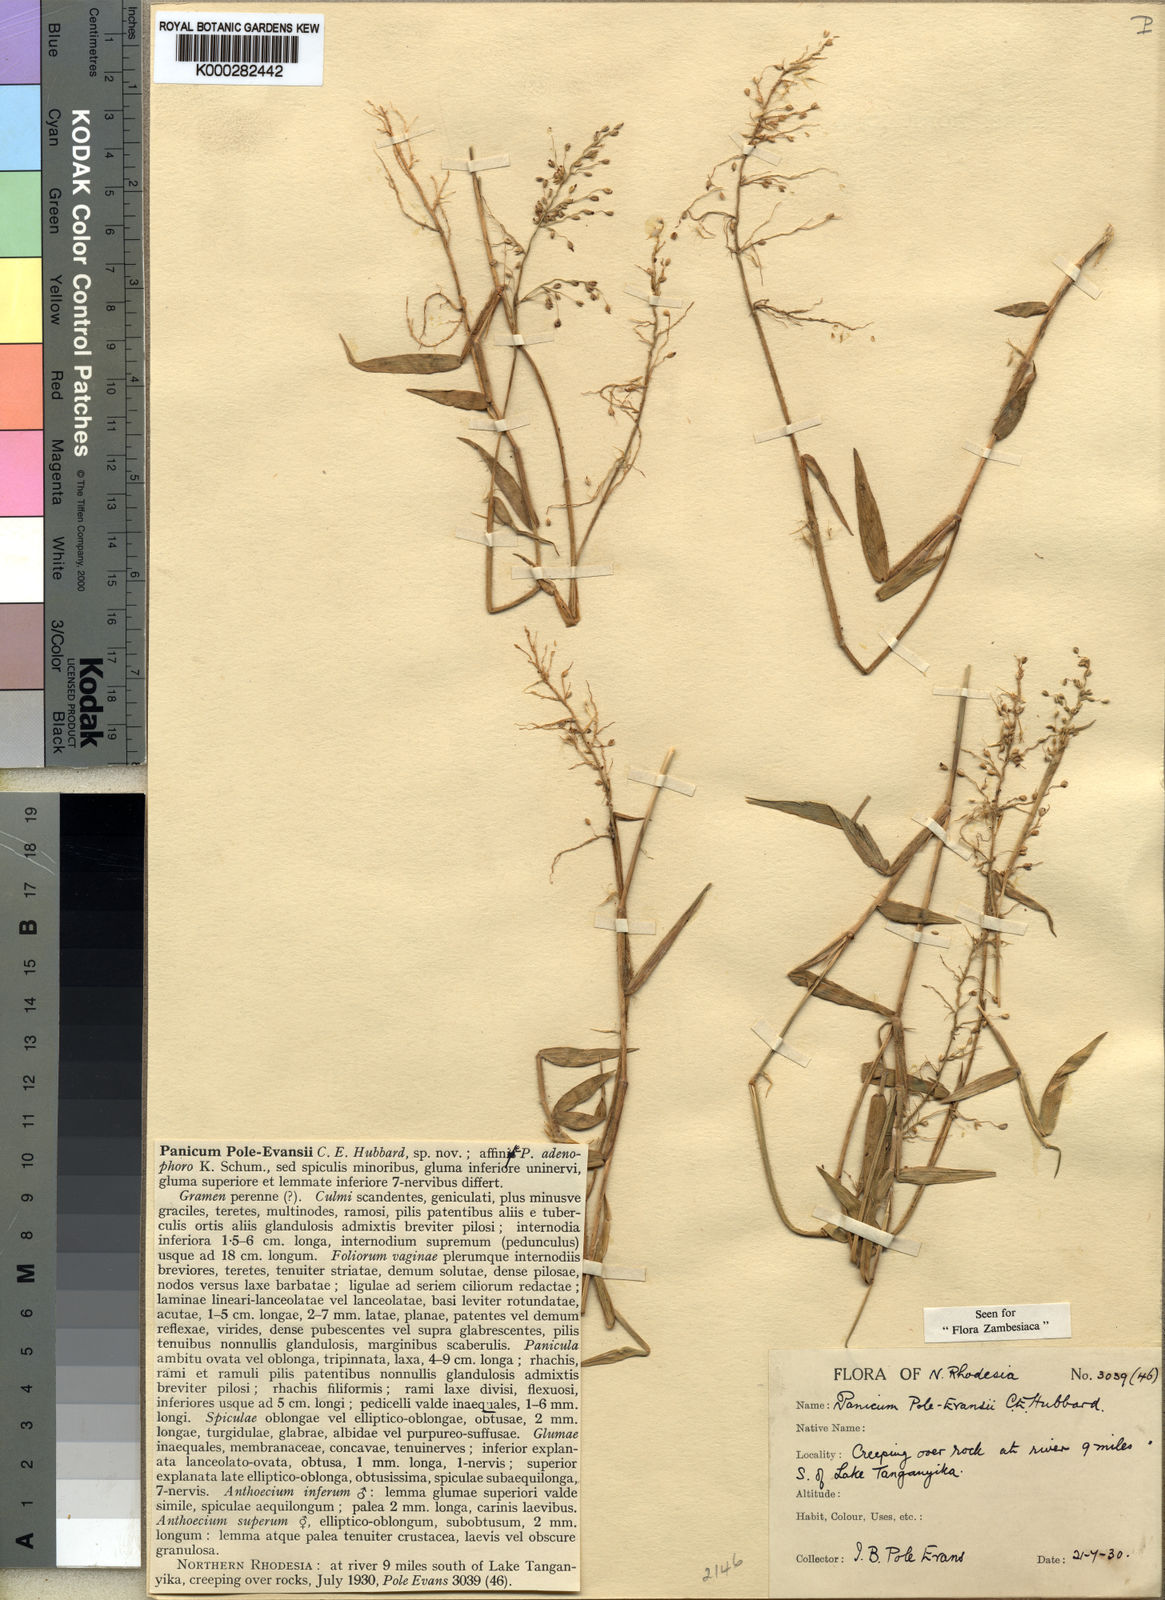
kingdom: Plantae
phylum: Tracheophyta
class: Liliopsida
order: Poales
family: Poaceae
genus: Adenochloa
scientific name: Adenochloa pole-evansii
